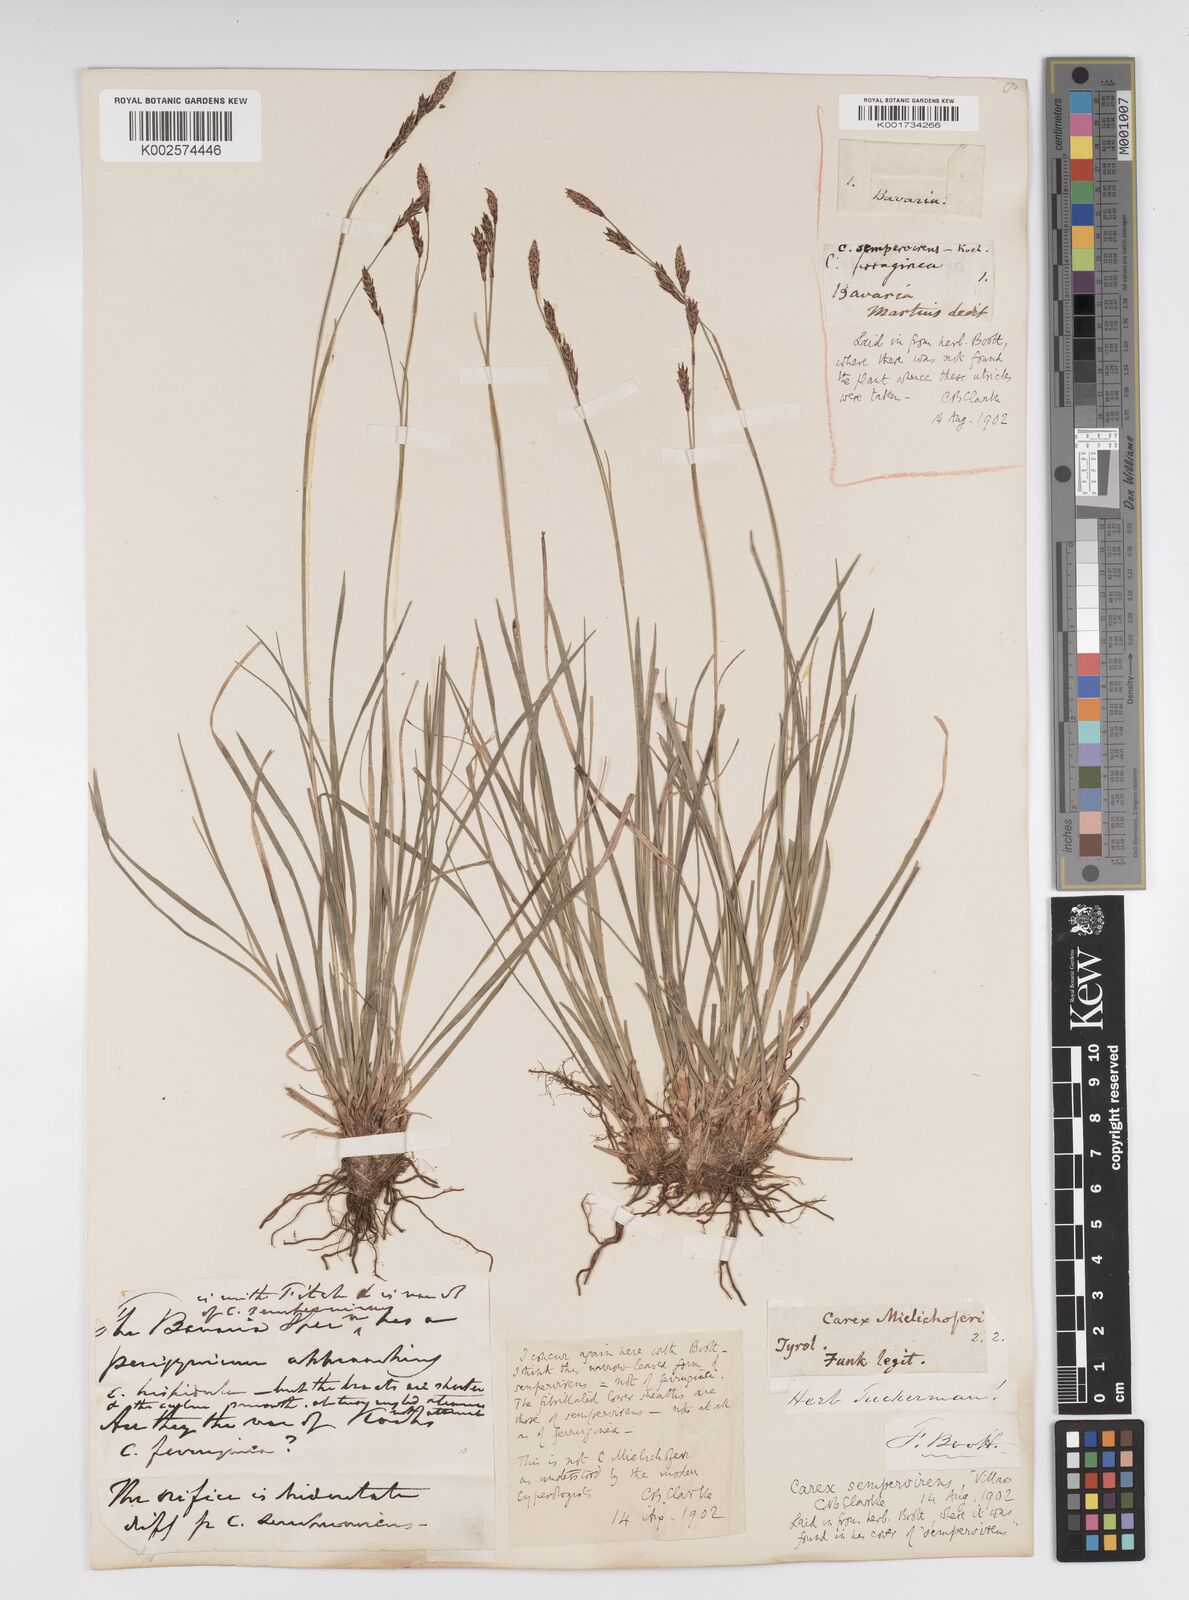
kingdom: Plantae
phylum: Tracheophyta
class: Liliopsida
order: Poales
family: Cyperaceae
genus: Carex
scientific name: Carex sempervirens
